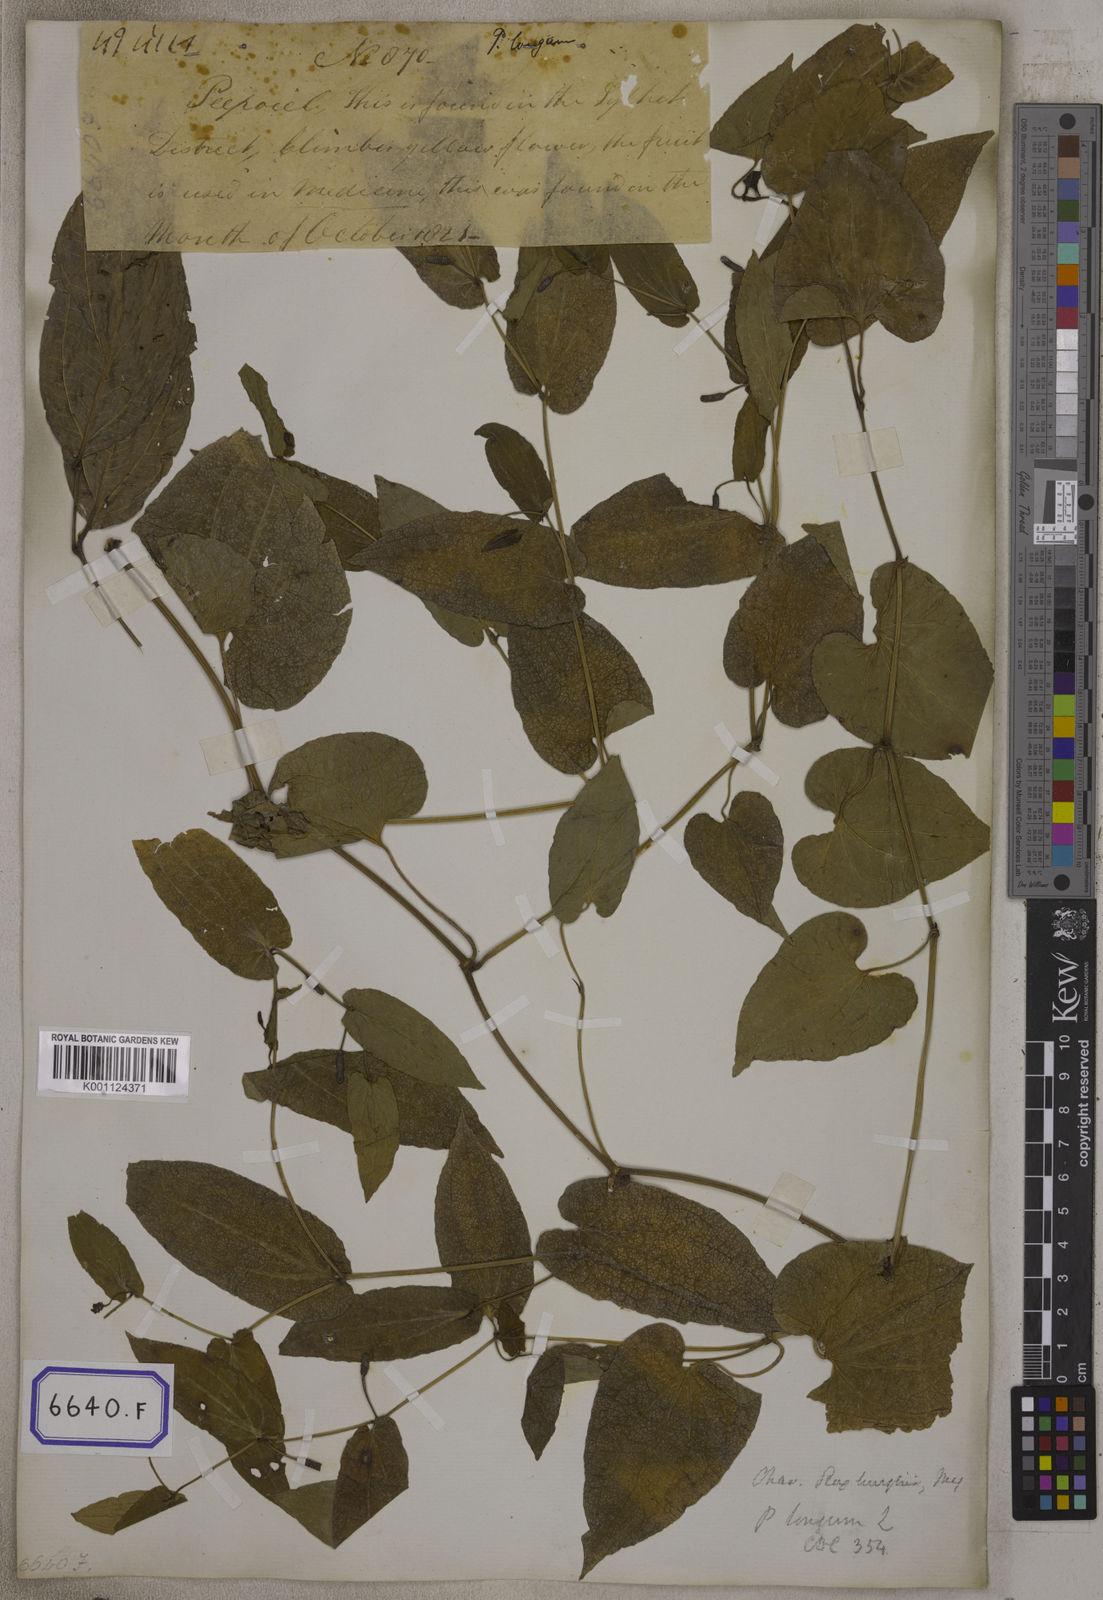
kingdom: Plantae
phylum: Tracheophyta
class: Magnoliopsida
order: Piperales
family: Piperaceae
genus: Piper
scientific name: Piper longum
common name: Long pepper
